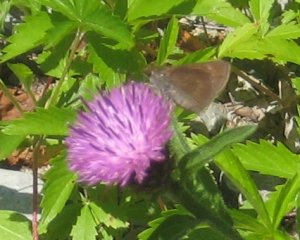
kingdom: Animalia
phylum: Arthropoda
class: Insecta
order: Lepidoptera
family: Hesperiidae
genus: Euphyes
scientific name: Euphyes vestris
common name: Dun Skipper
